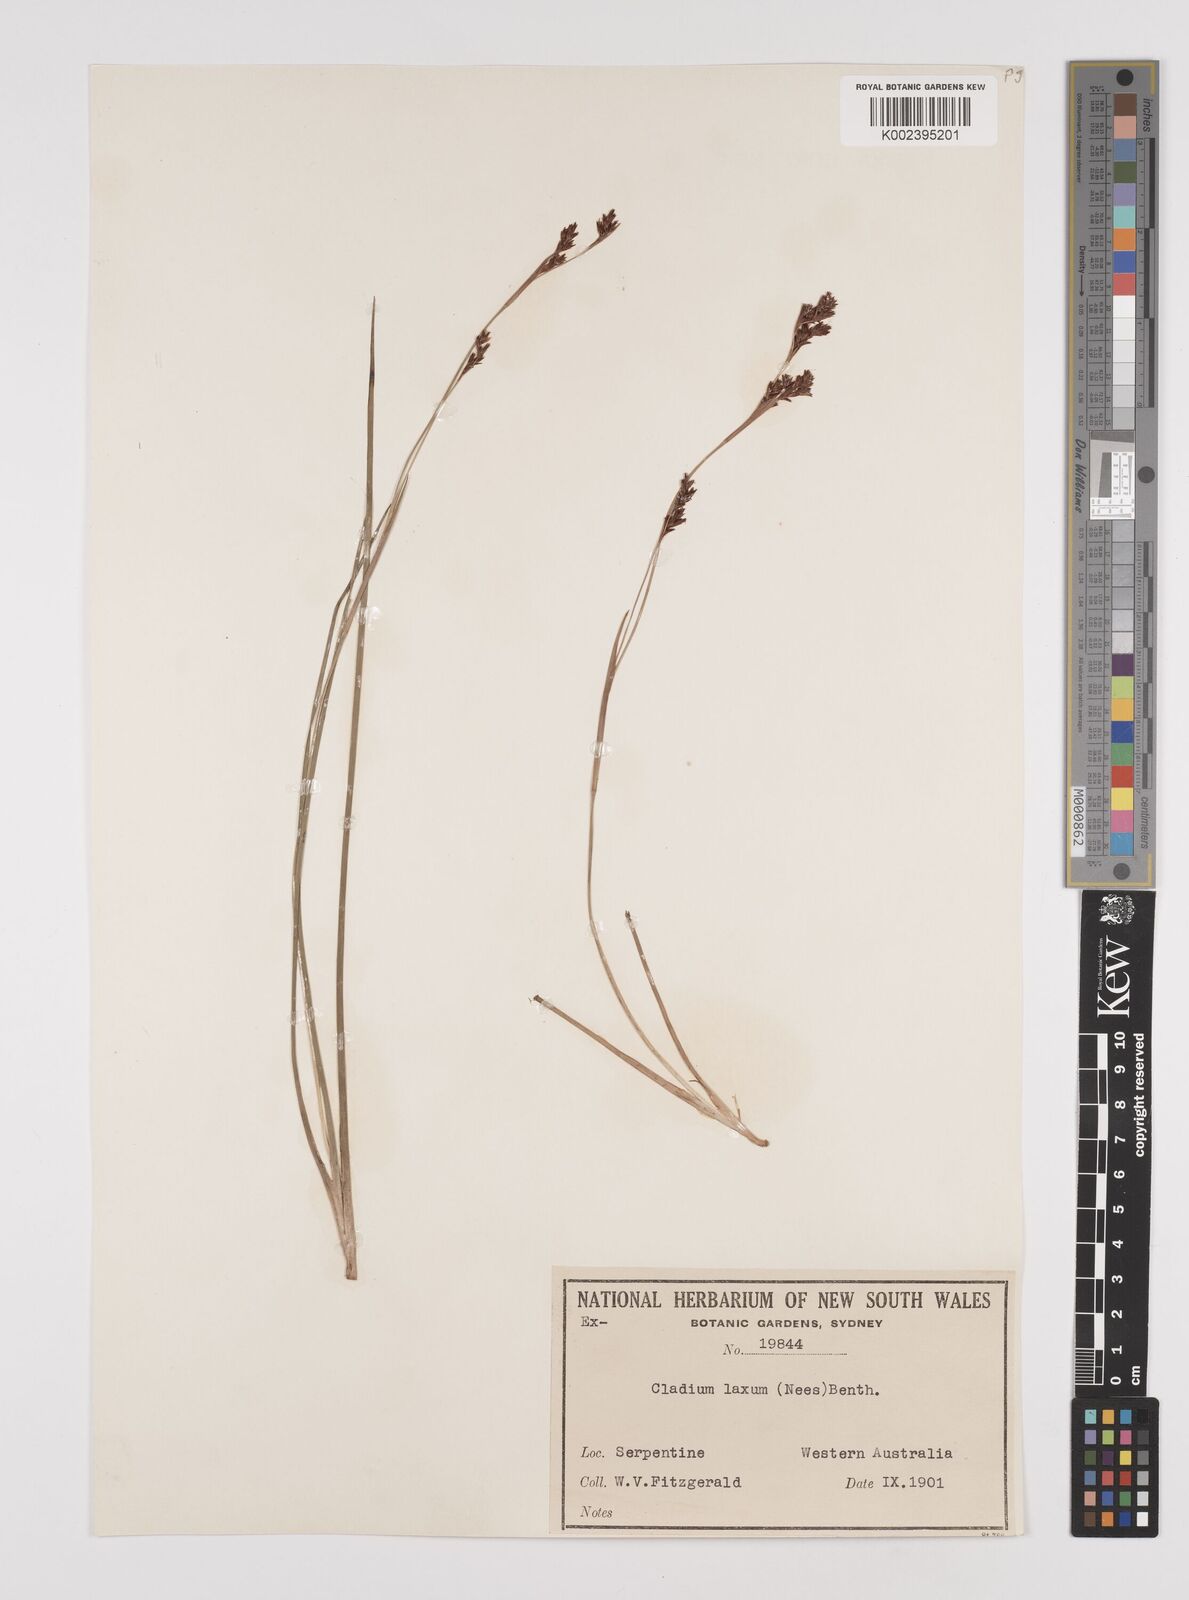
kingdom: Plantae
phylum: Tracheophyta
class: Liliopsida
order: Poales
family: Cyperaceae
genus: Machaerina
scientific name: Machaerina laxa
